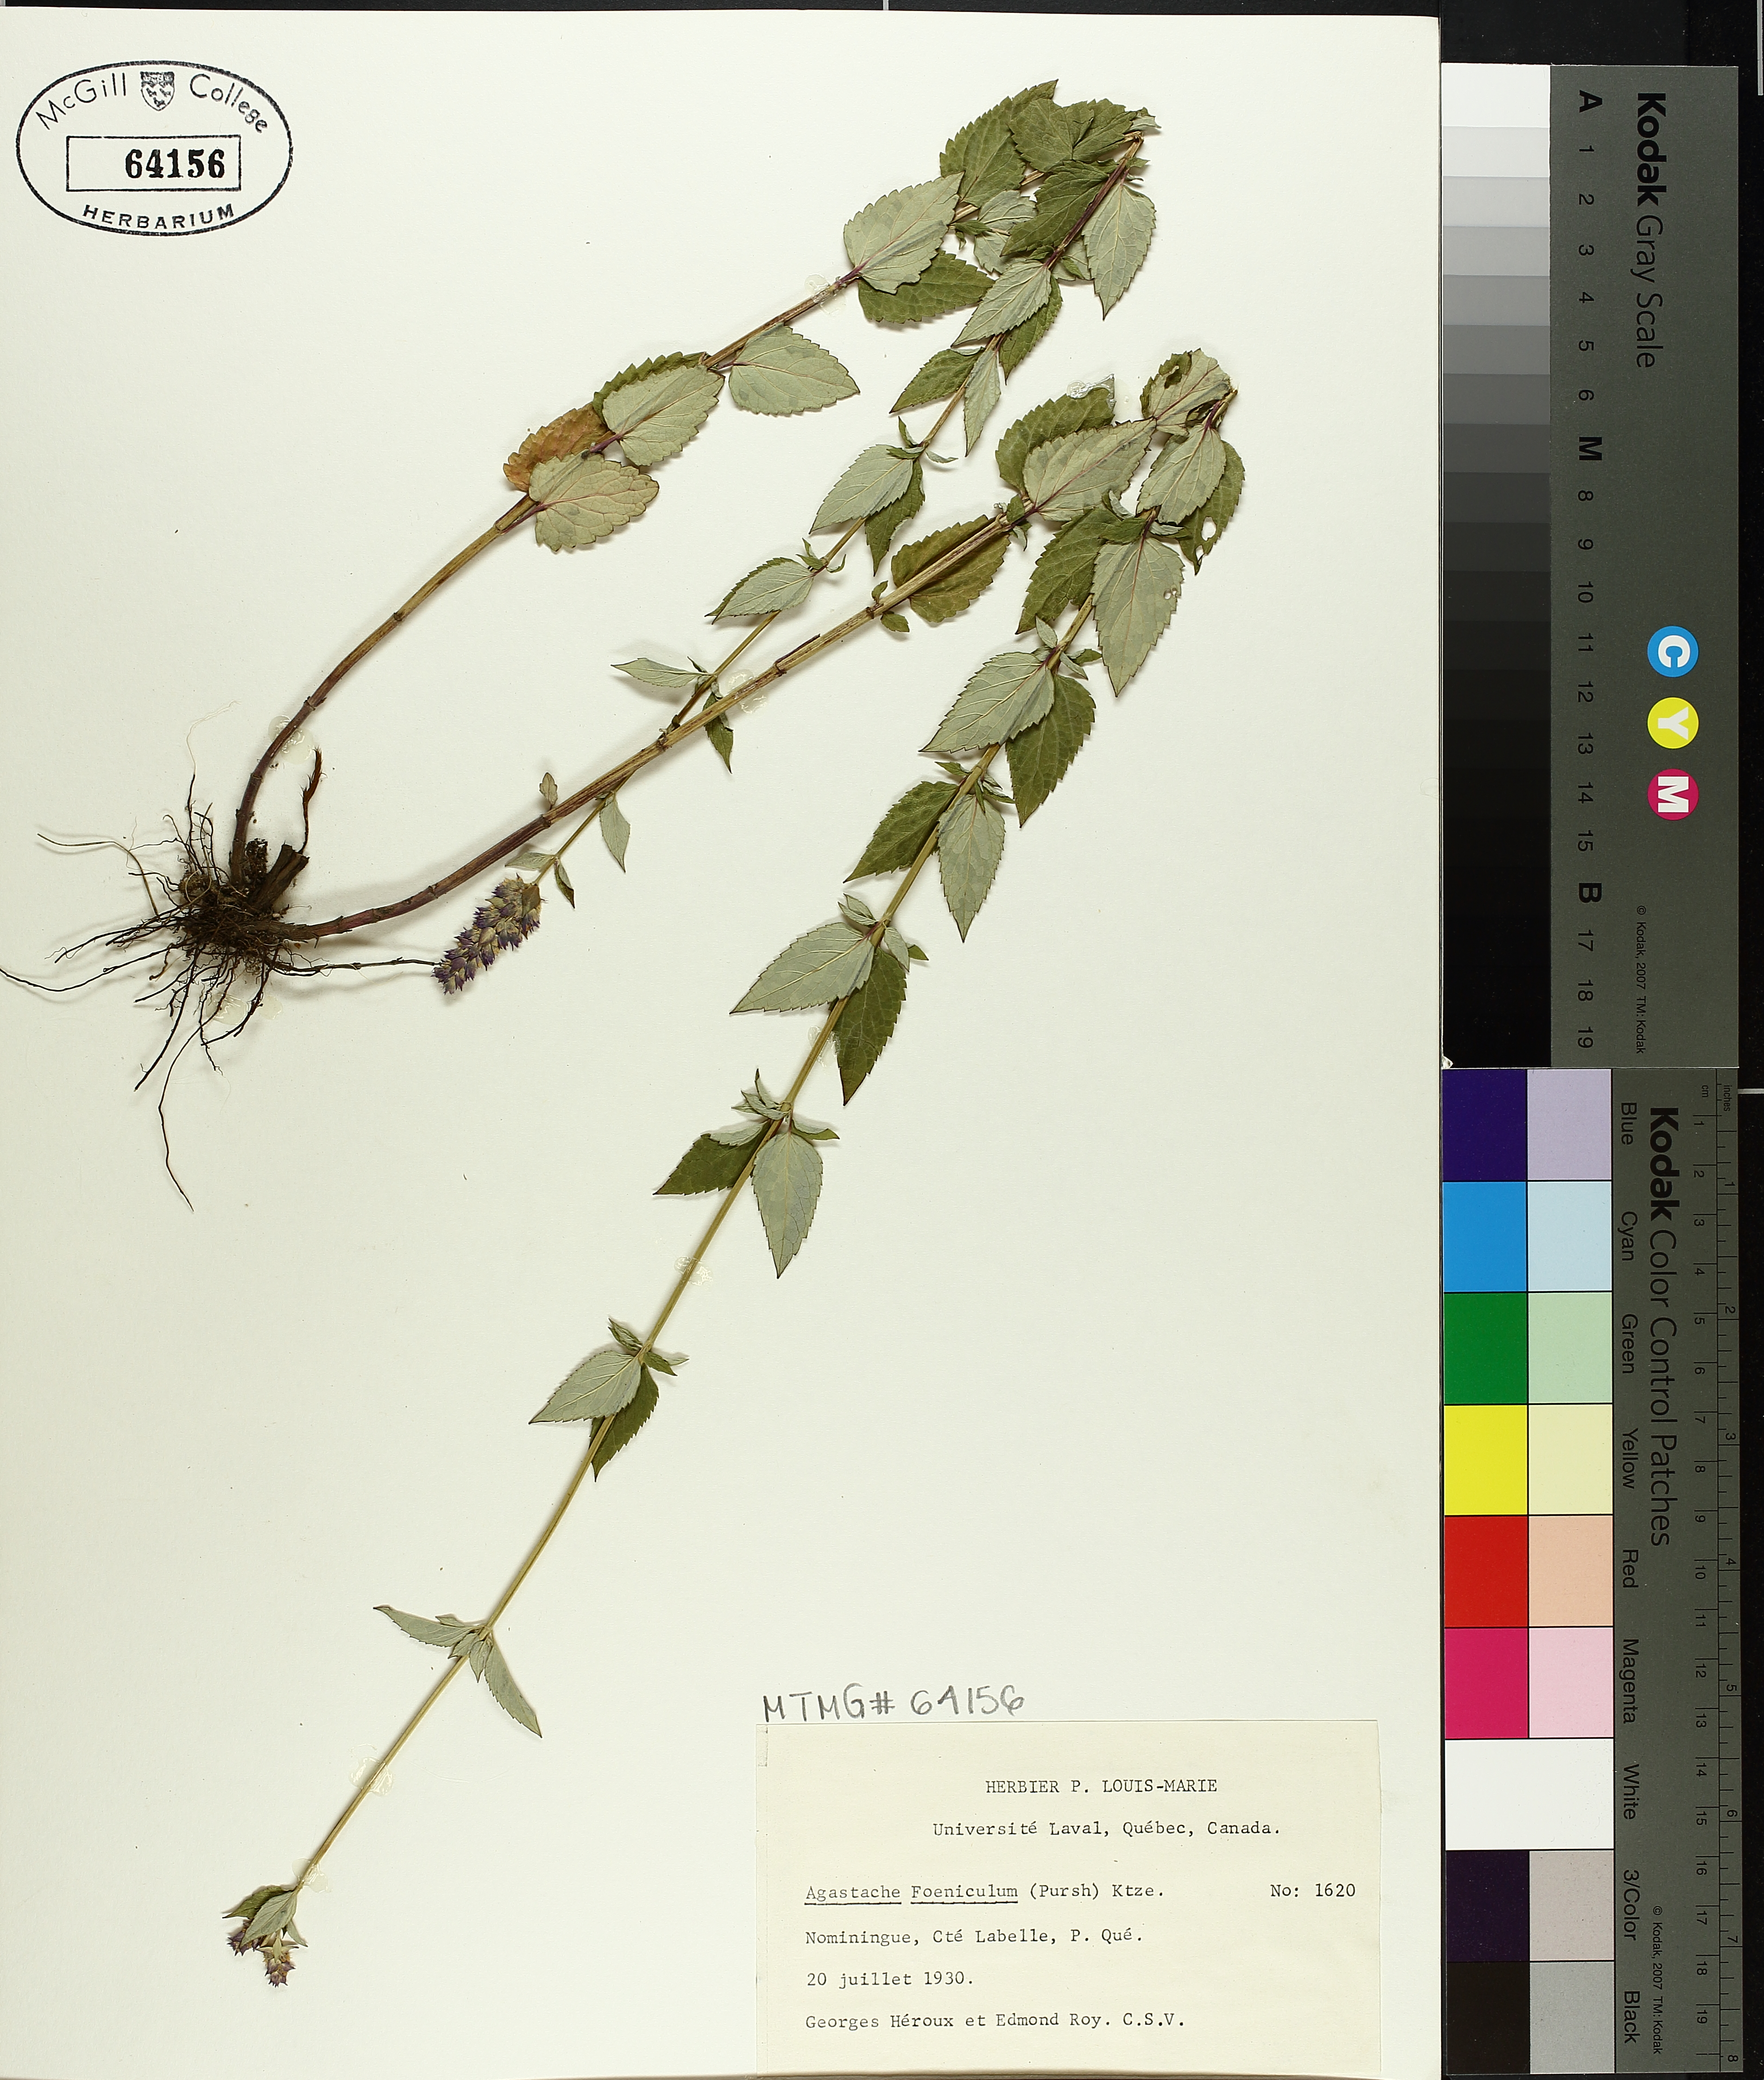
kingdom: Plantae
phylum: Tracheophyta
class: Magnoliopsida
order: Lamiales
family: Lamiaceae
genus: Agastache
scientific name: Agastache foeniculum
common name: Anise hyssop
